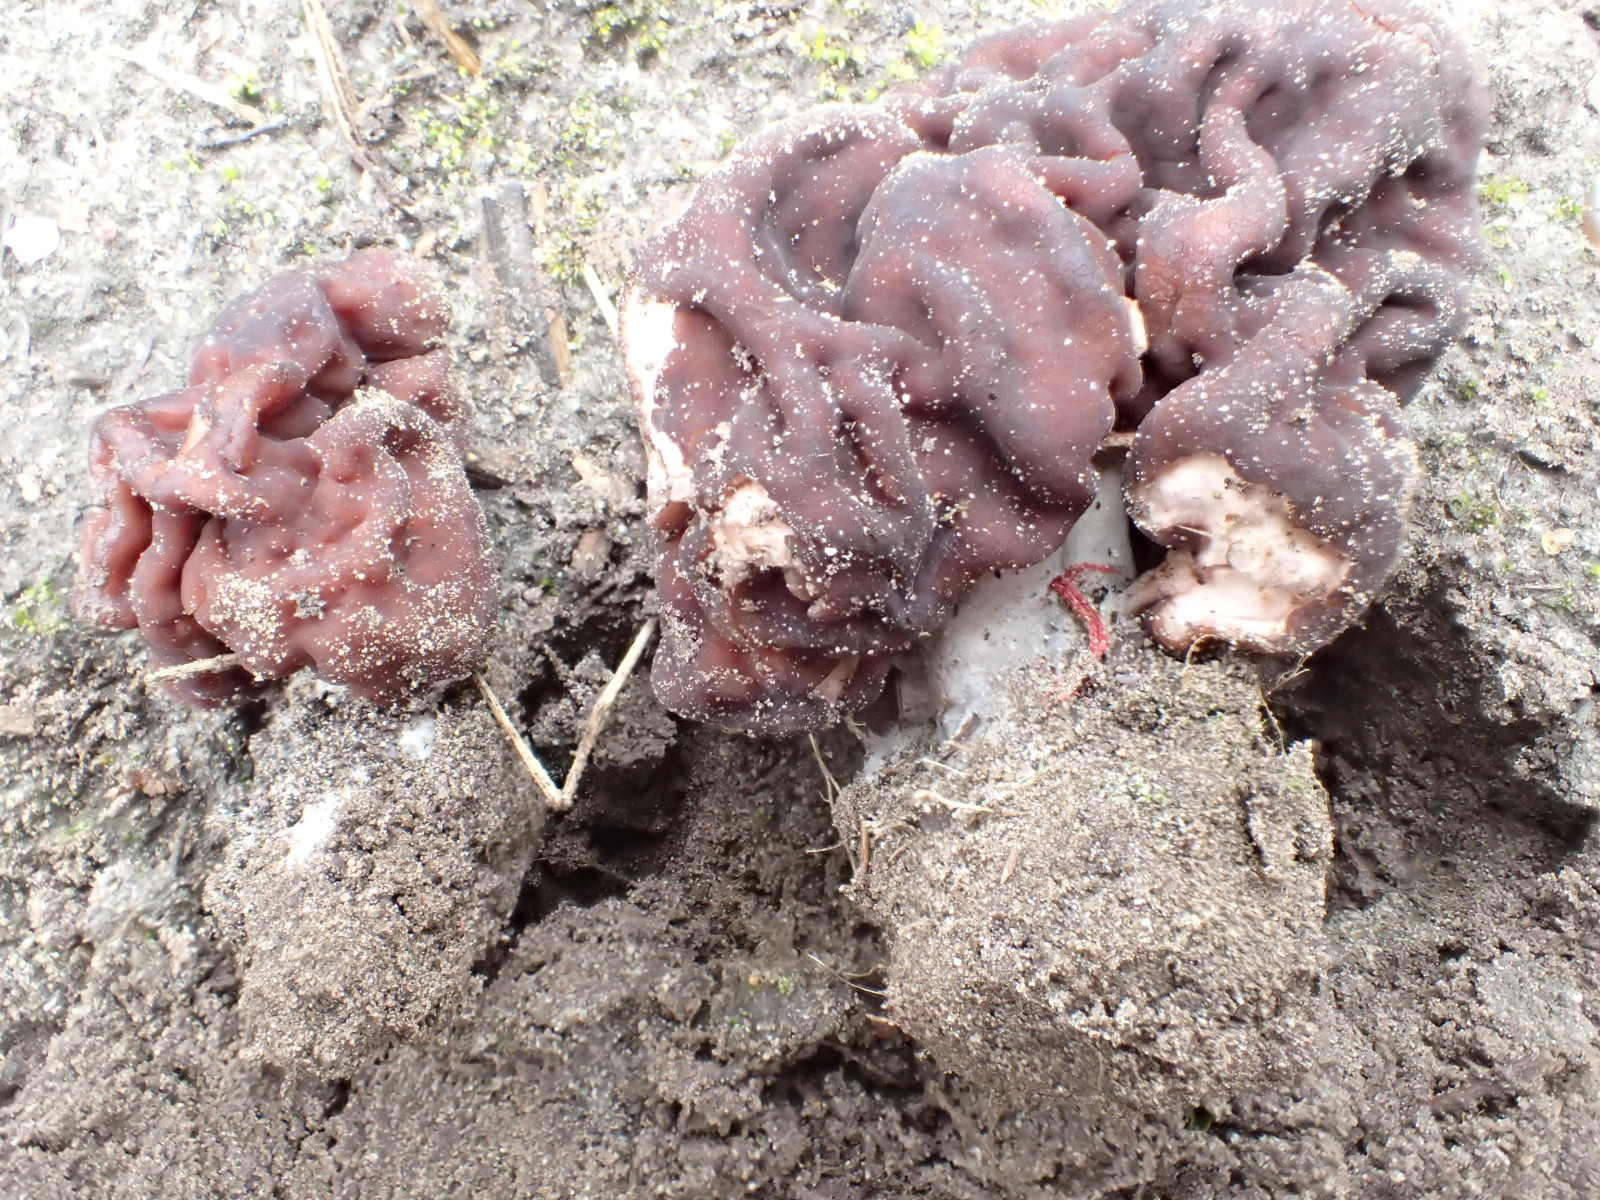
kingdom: Fungi
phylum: Ascomycota
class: Pezizomycetes
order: Pezizales
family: Discinaceae
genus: Gyromitra
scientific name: Gyromitra esculenta
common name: ægte stenmorkel
